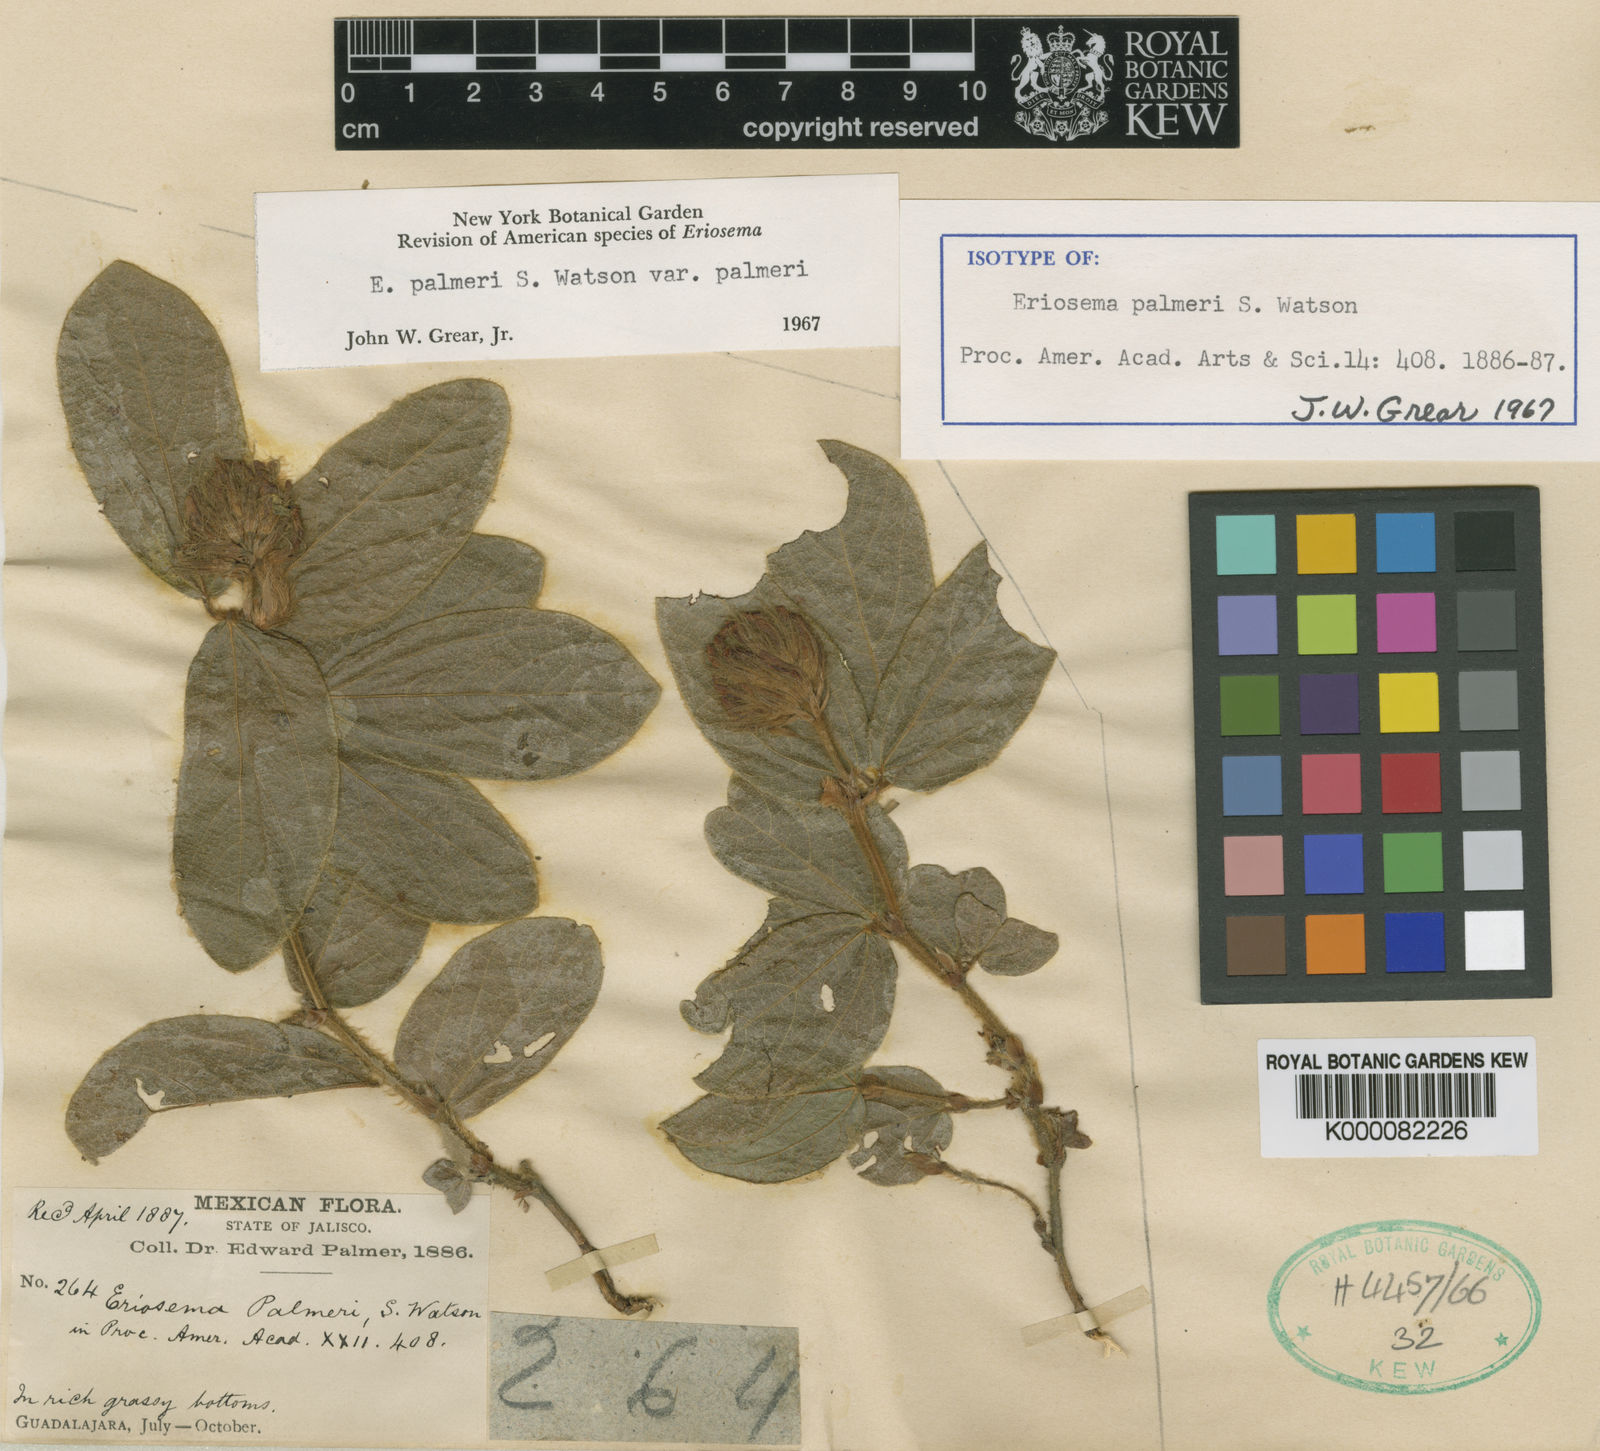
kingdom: Plantae
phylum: Tracheophyta
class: Magnoliopsida
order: Fabales
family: Fabaceae
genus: Eriosema
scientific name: Eriosema palmeri
